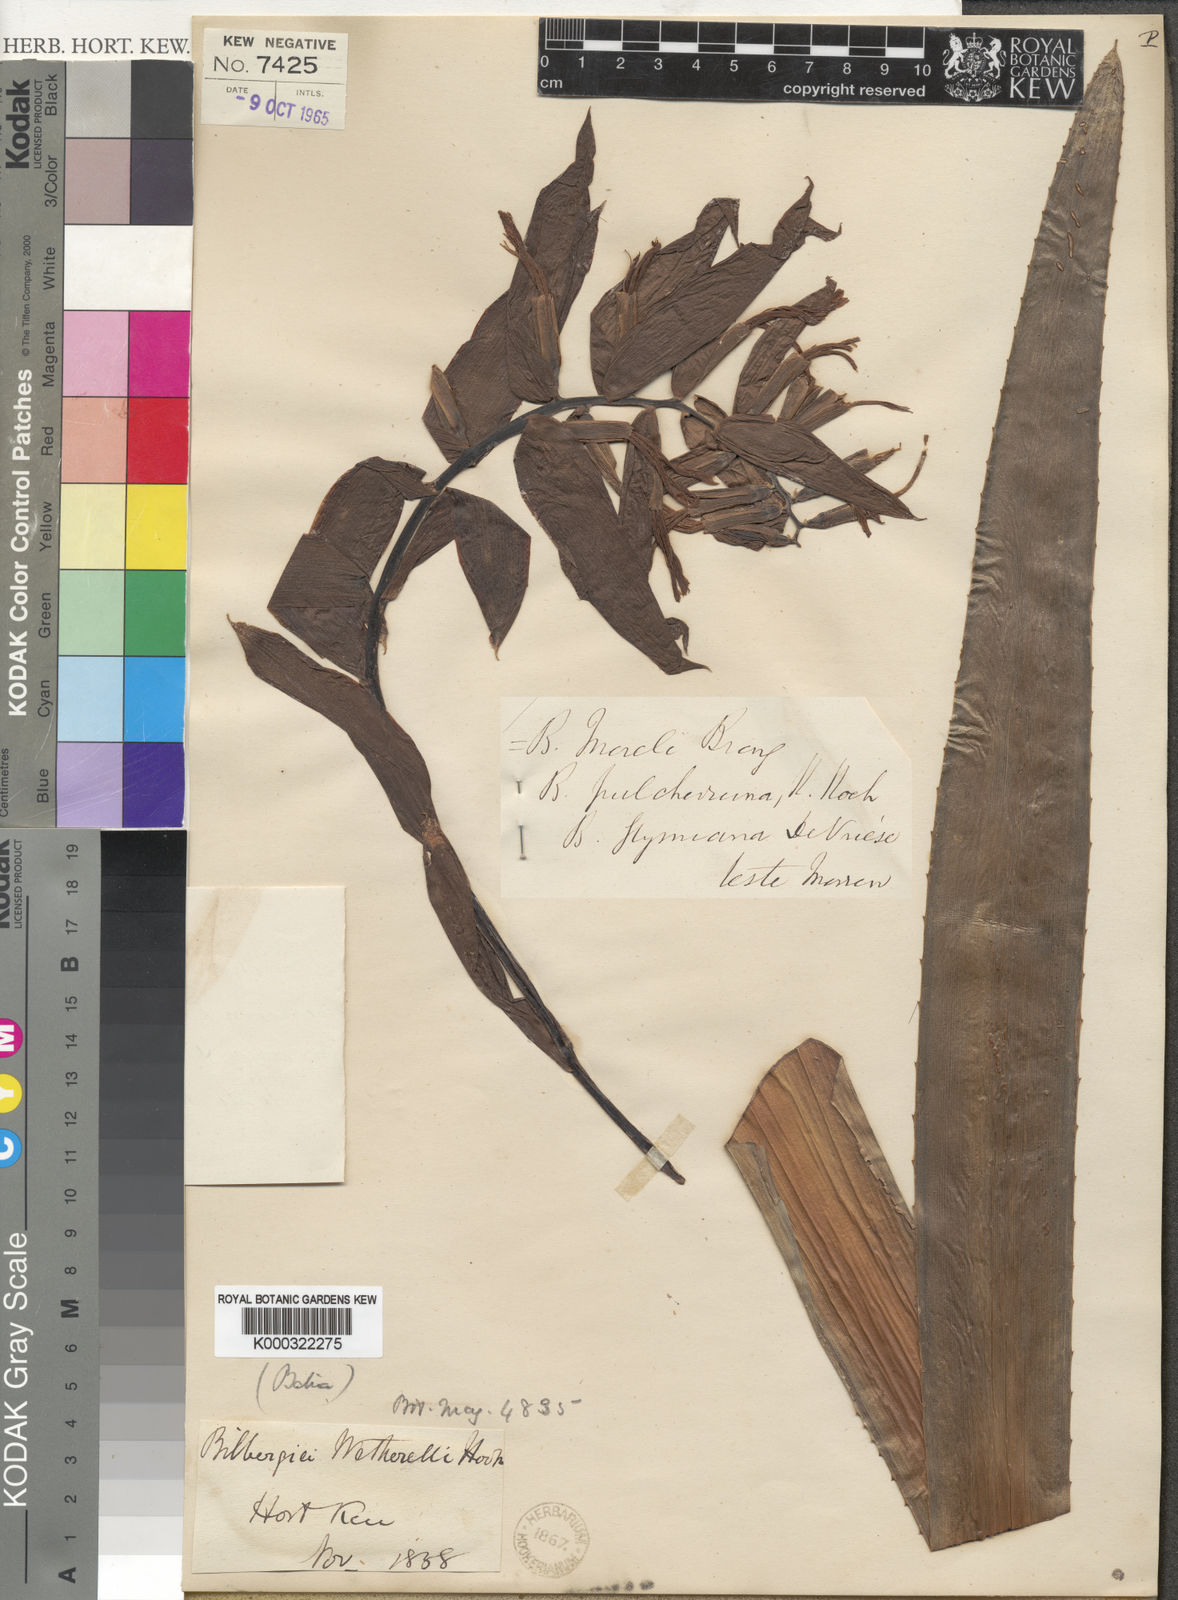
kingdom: Plantae
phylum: Tracheophyta
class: Liliopsida
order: Poales
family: Bromeliaceae
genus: Billbergia
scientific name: Billbergia morelii
